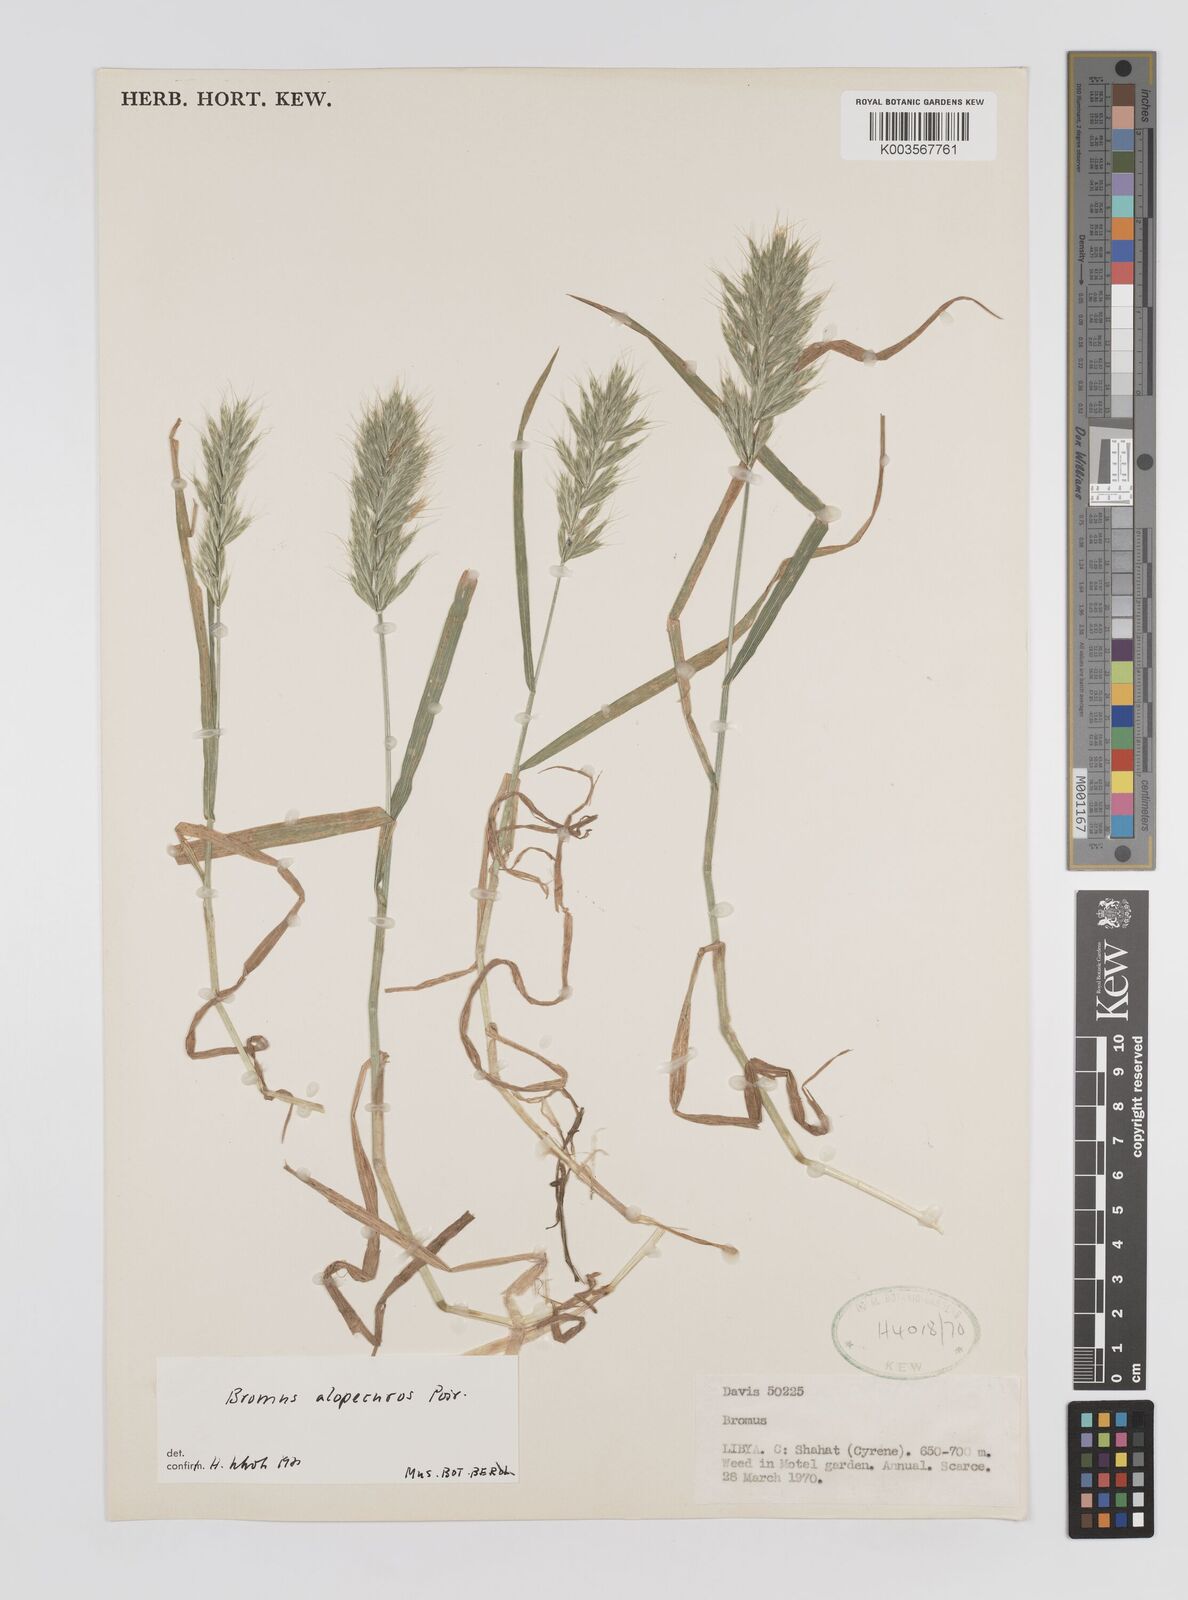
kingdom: Plantae
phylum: Tracheophyta
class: Liliopsida
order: Poales
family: Poaceae
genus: Bromus
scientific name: Bromus alopecuros
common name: Weedy brome
